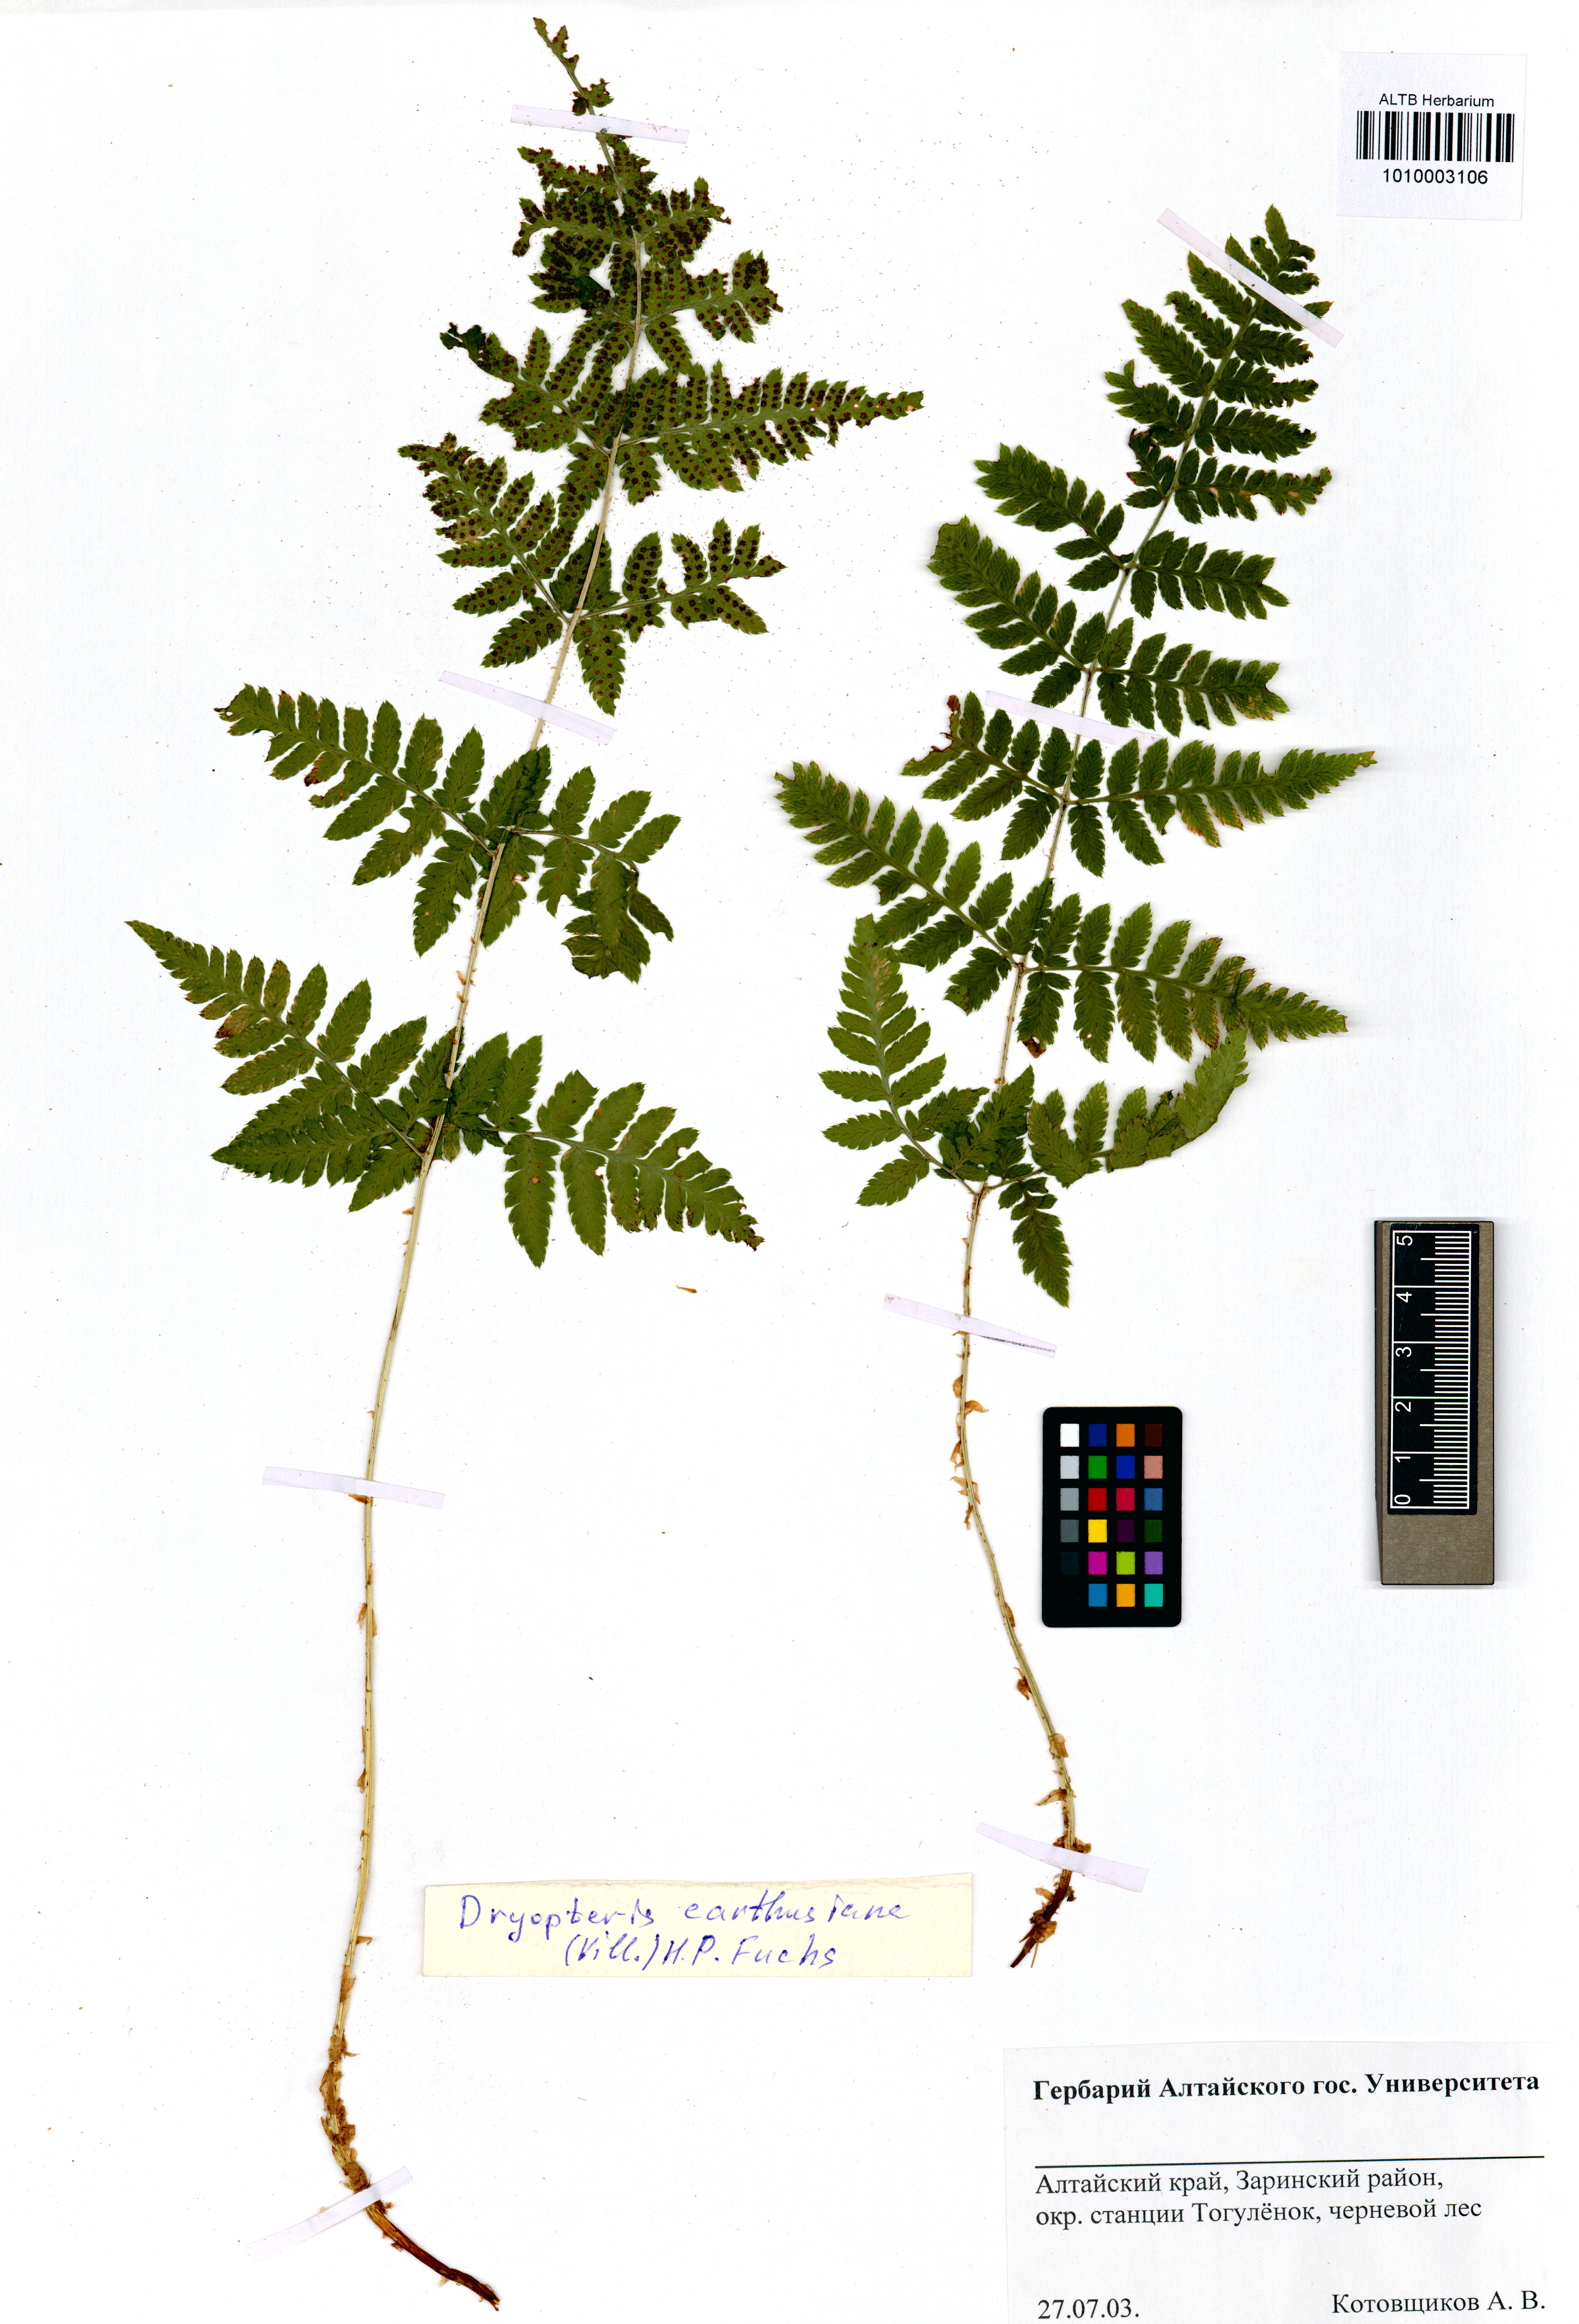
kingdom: Plantae
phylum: Tracheophyta
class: Polypodiopsida
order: Polypodiales
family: Dryopteridaceae
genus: Dryopteris
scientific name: Dryopteris carthusiana
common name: Narrow buckler-fern
